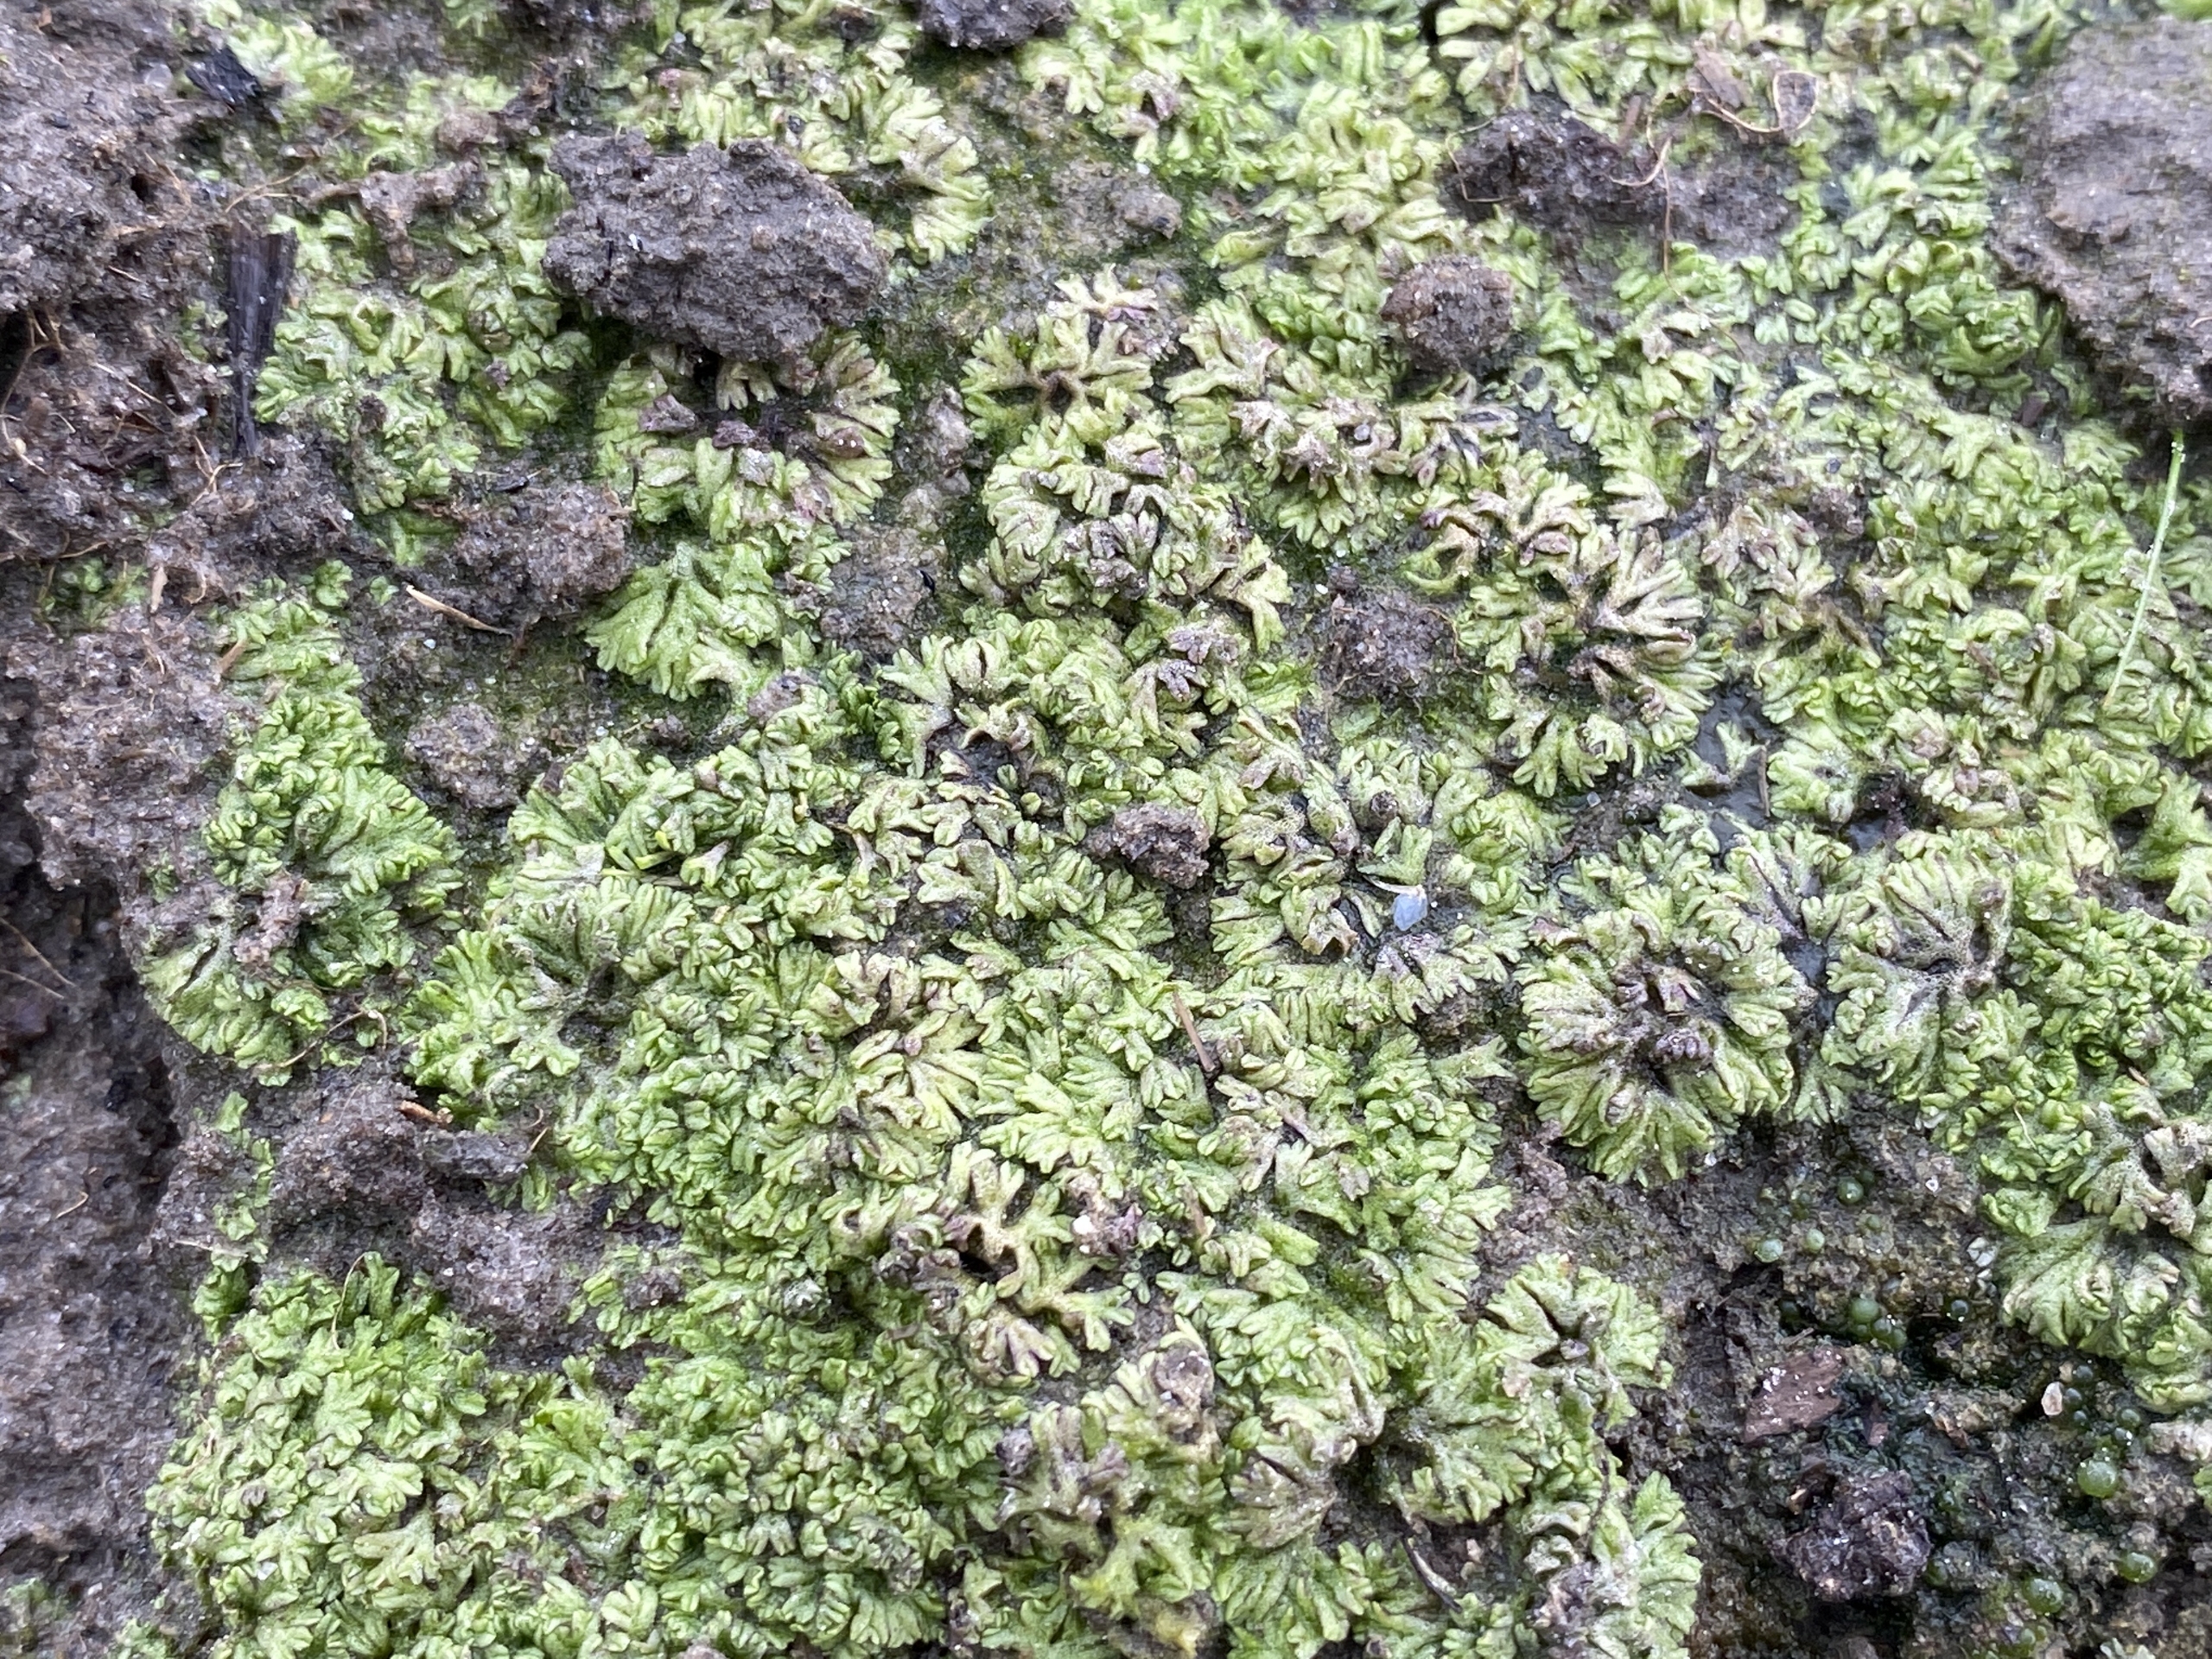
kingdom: Plantae
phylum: Marchantiophyta
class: Marchantiopsida
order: Marchantiales
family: Ricciaceae
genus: Riccia
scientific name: Riccia huebeneriana
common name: Dam-stjerneløv
